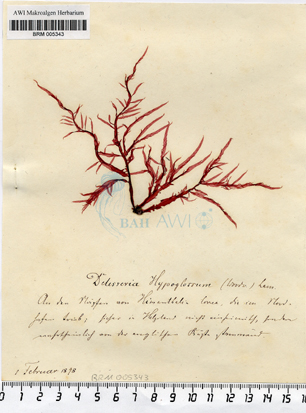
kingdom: Plantae
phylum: Rhodophyta
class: Florideophyceae
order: Ceramiales
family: Delesseriaceae
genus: Hypoglossum
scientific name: Hypoglossum hypoglossoides
